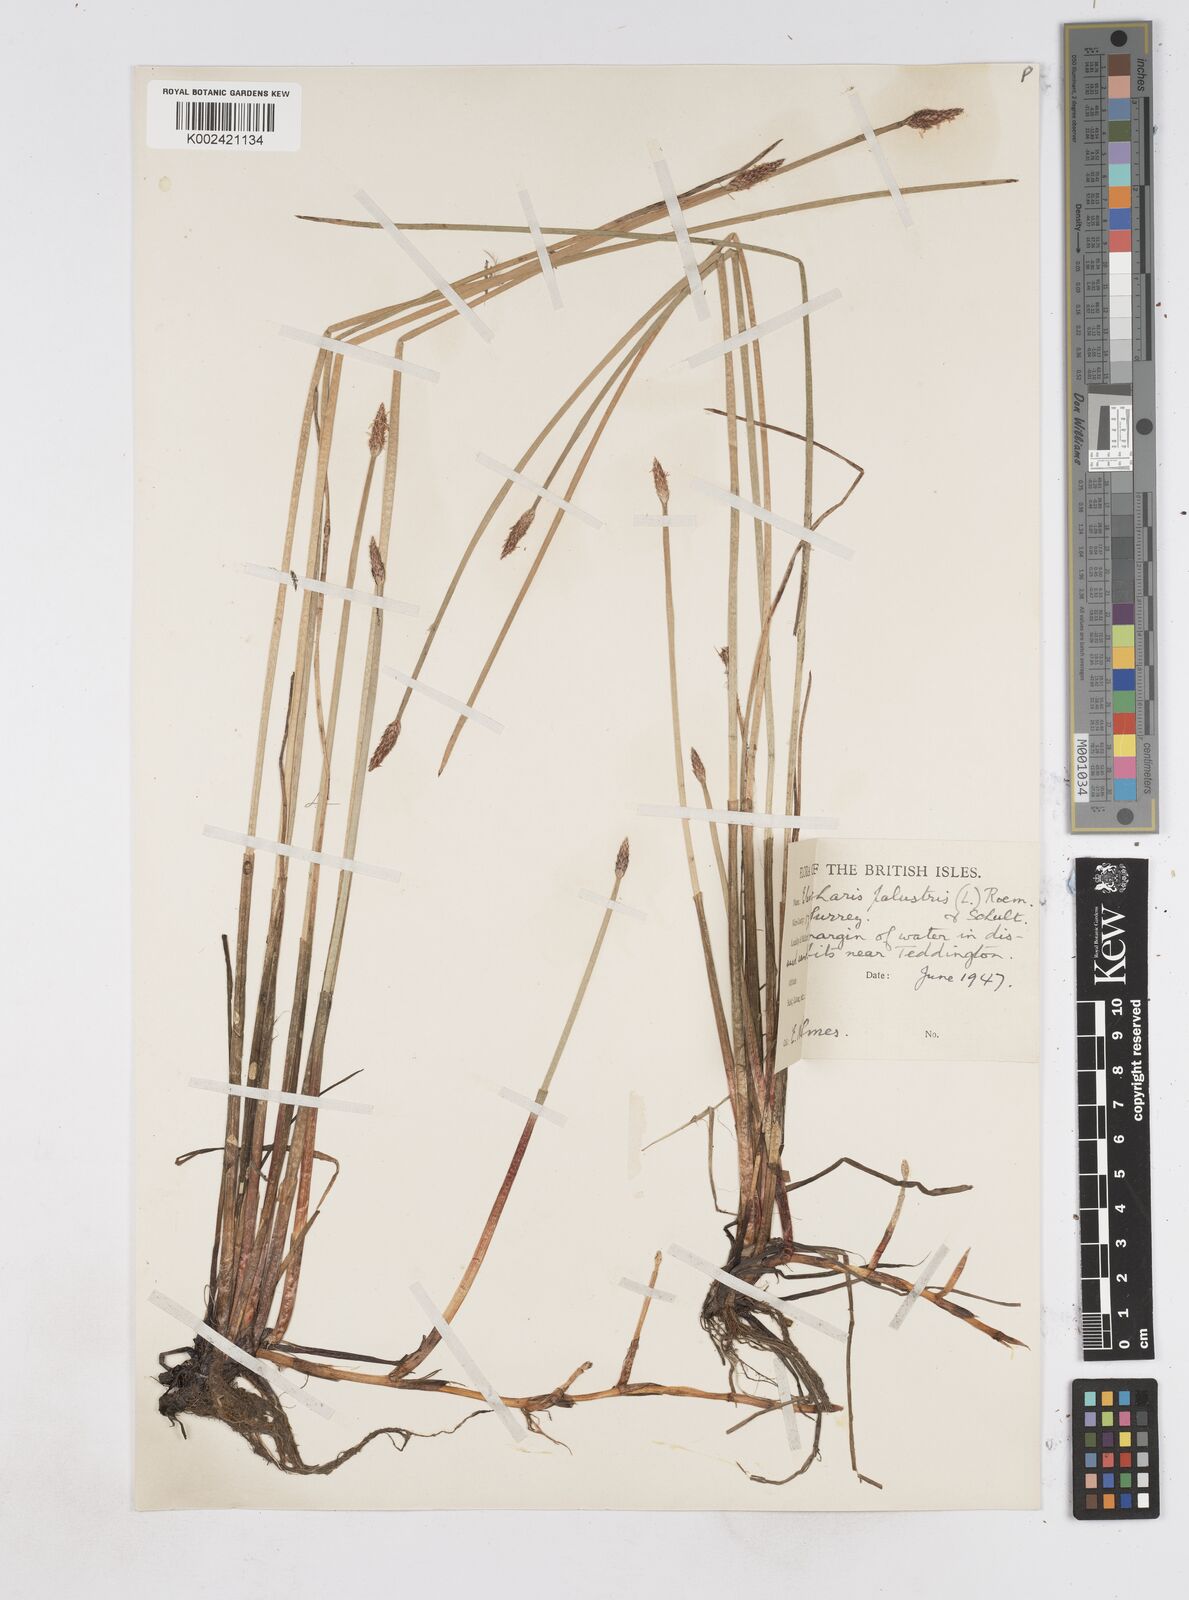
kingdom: Plantae
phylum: Tracheophyta
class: Liliopsida
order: Poales
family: Cyperaceae
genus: Eleocharis
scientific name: Eleocharis palustris
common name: Common spike-rush
